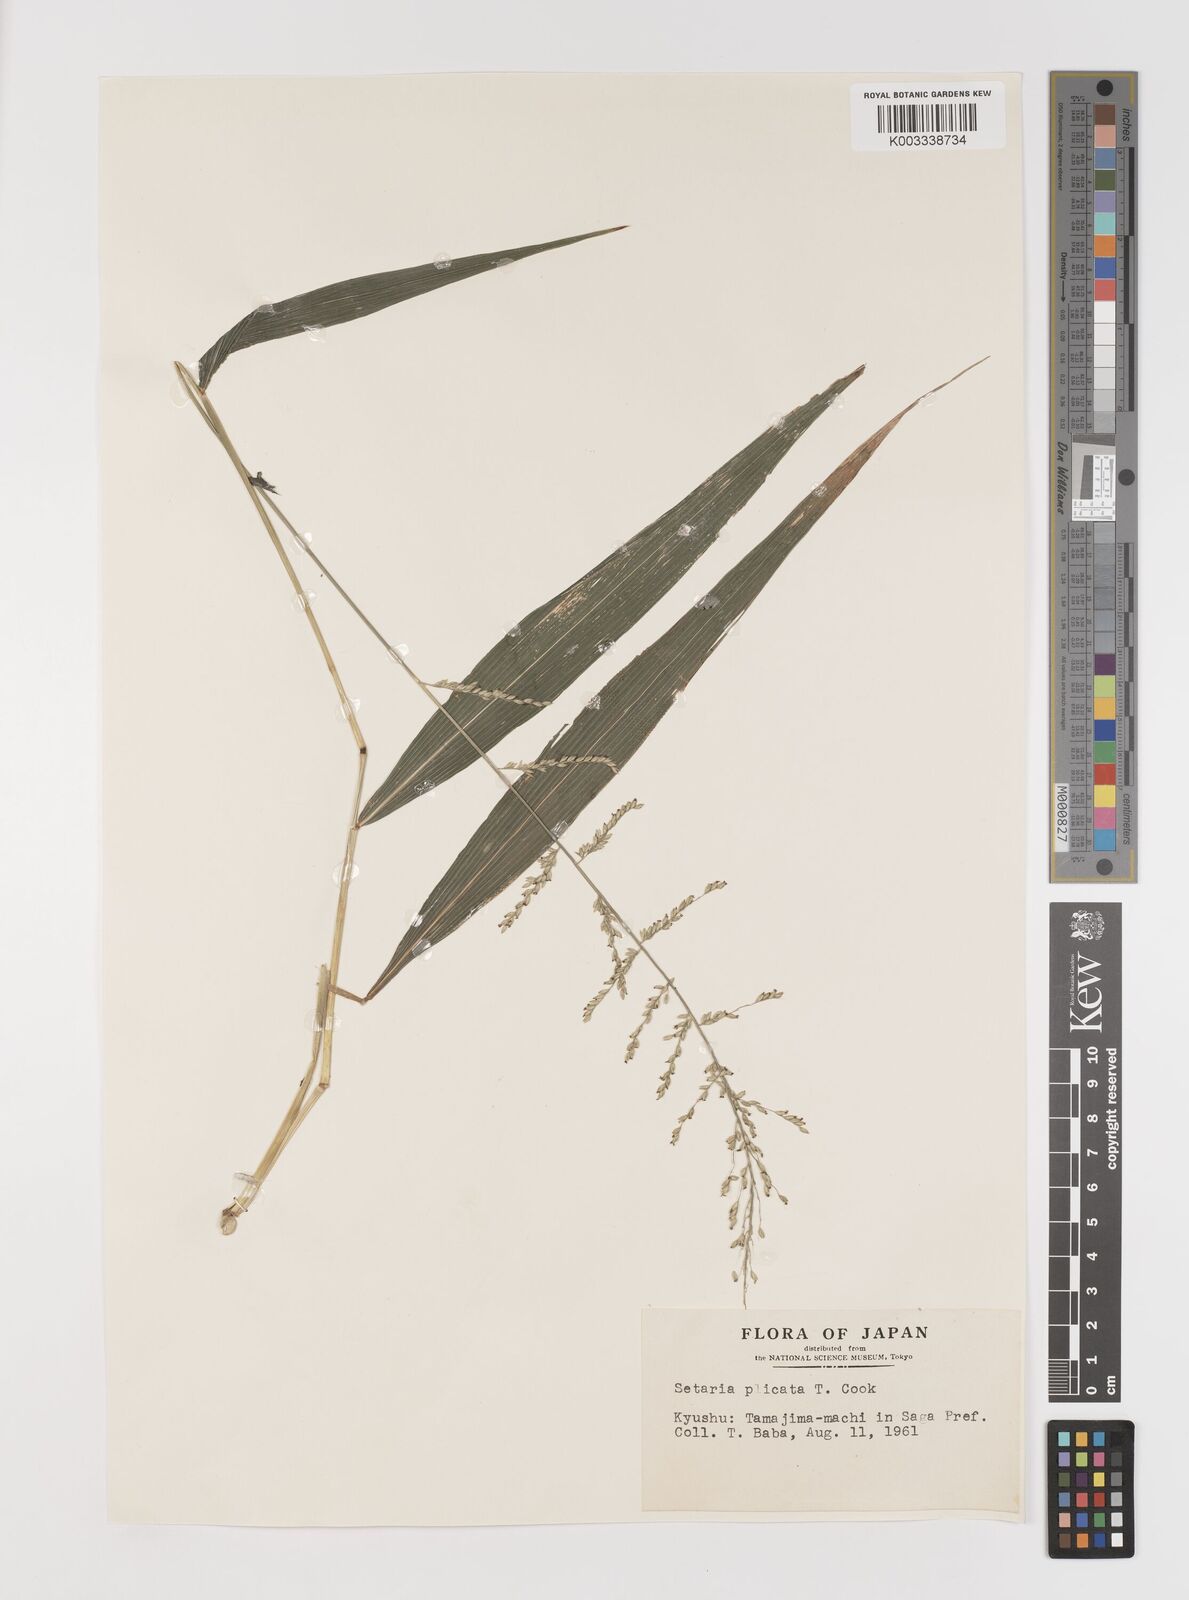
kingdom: Plantae
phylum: Tracheophyta
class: Liliopsida
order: Poales
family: Poaceae
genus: Setaria
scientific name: Setaria plicata
